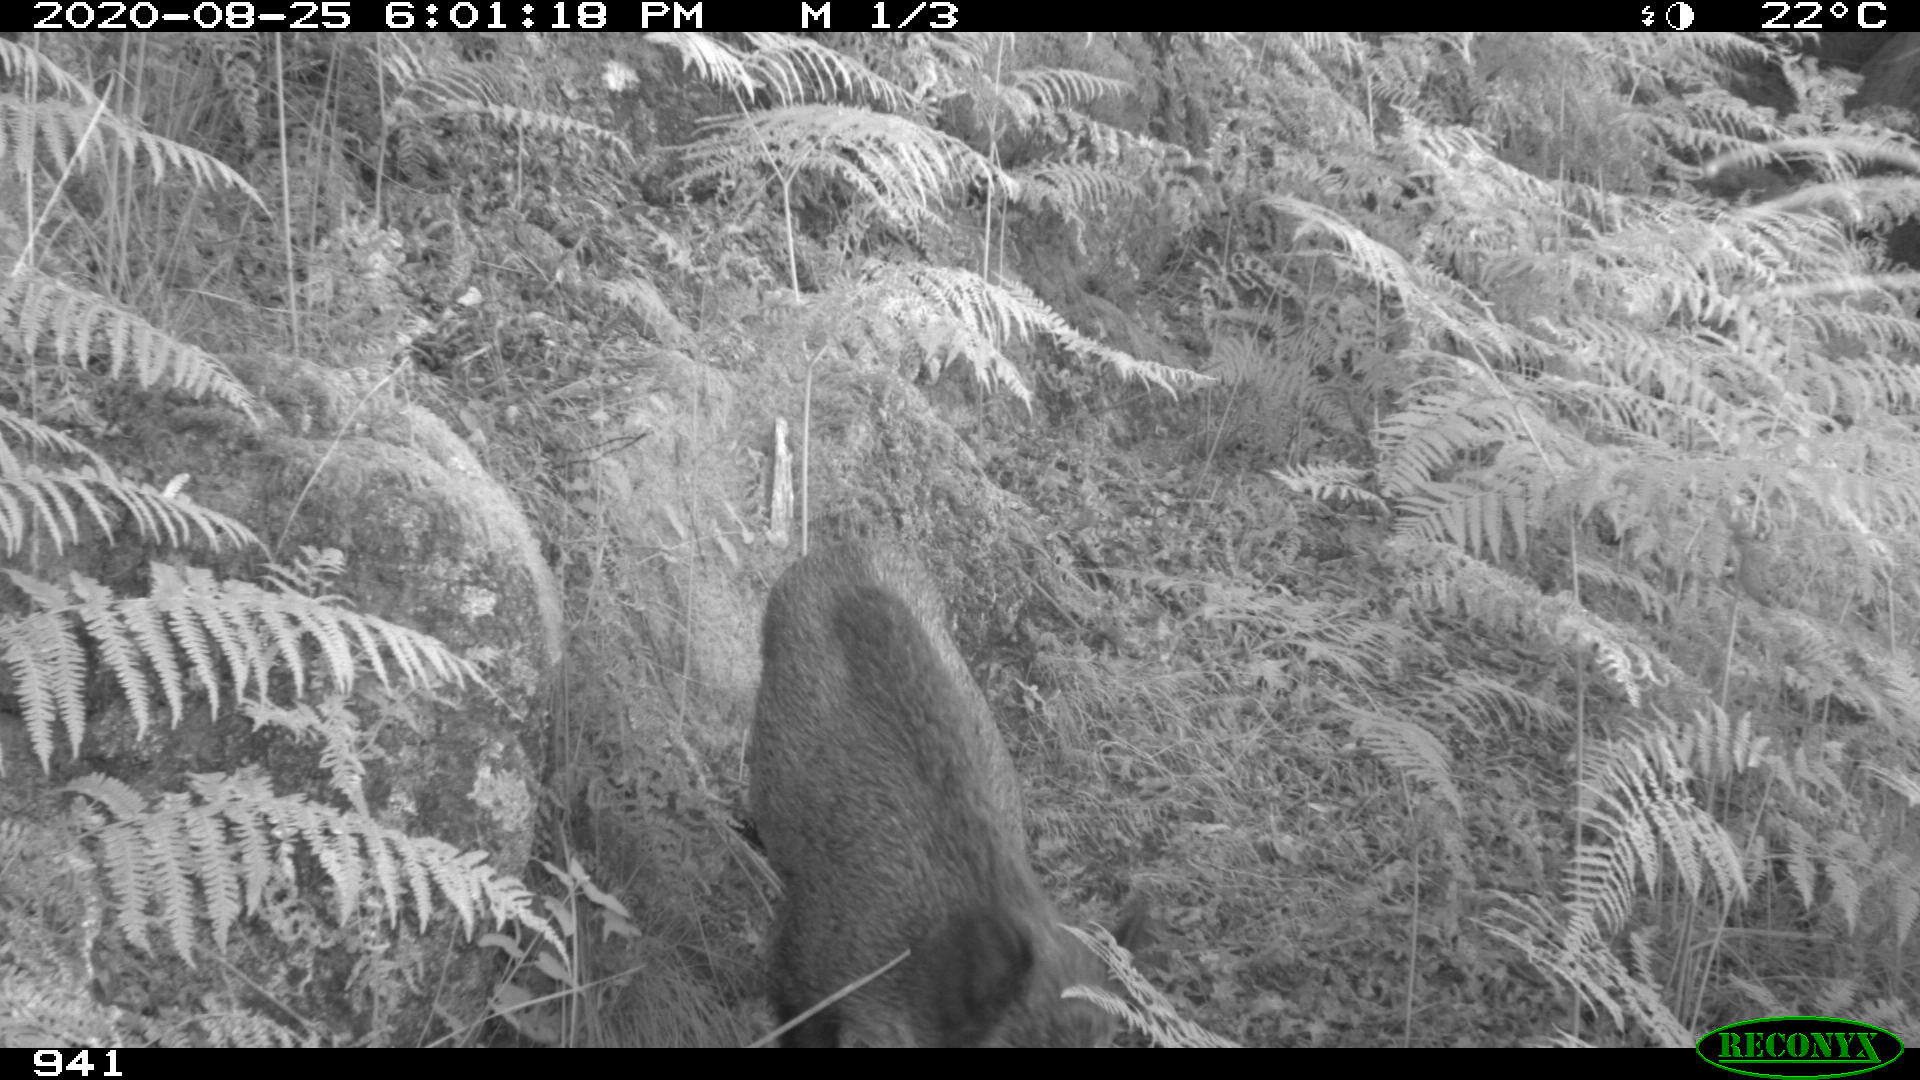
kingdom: Animalia
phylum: Chordata
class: Mammalia
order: Artiodactyla
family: Suidae
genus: Sus
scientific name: Sus scrofa
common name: Wild boar
